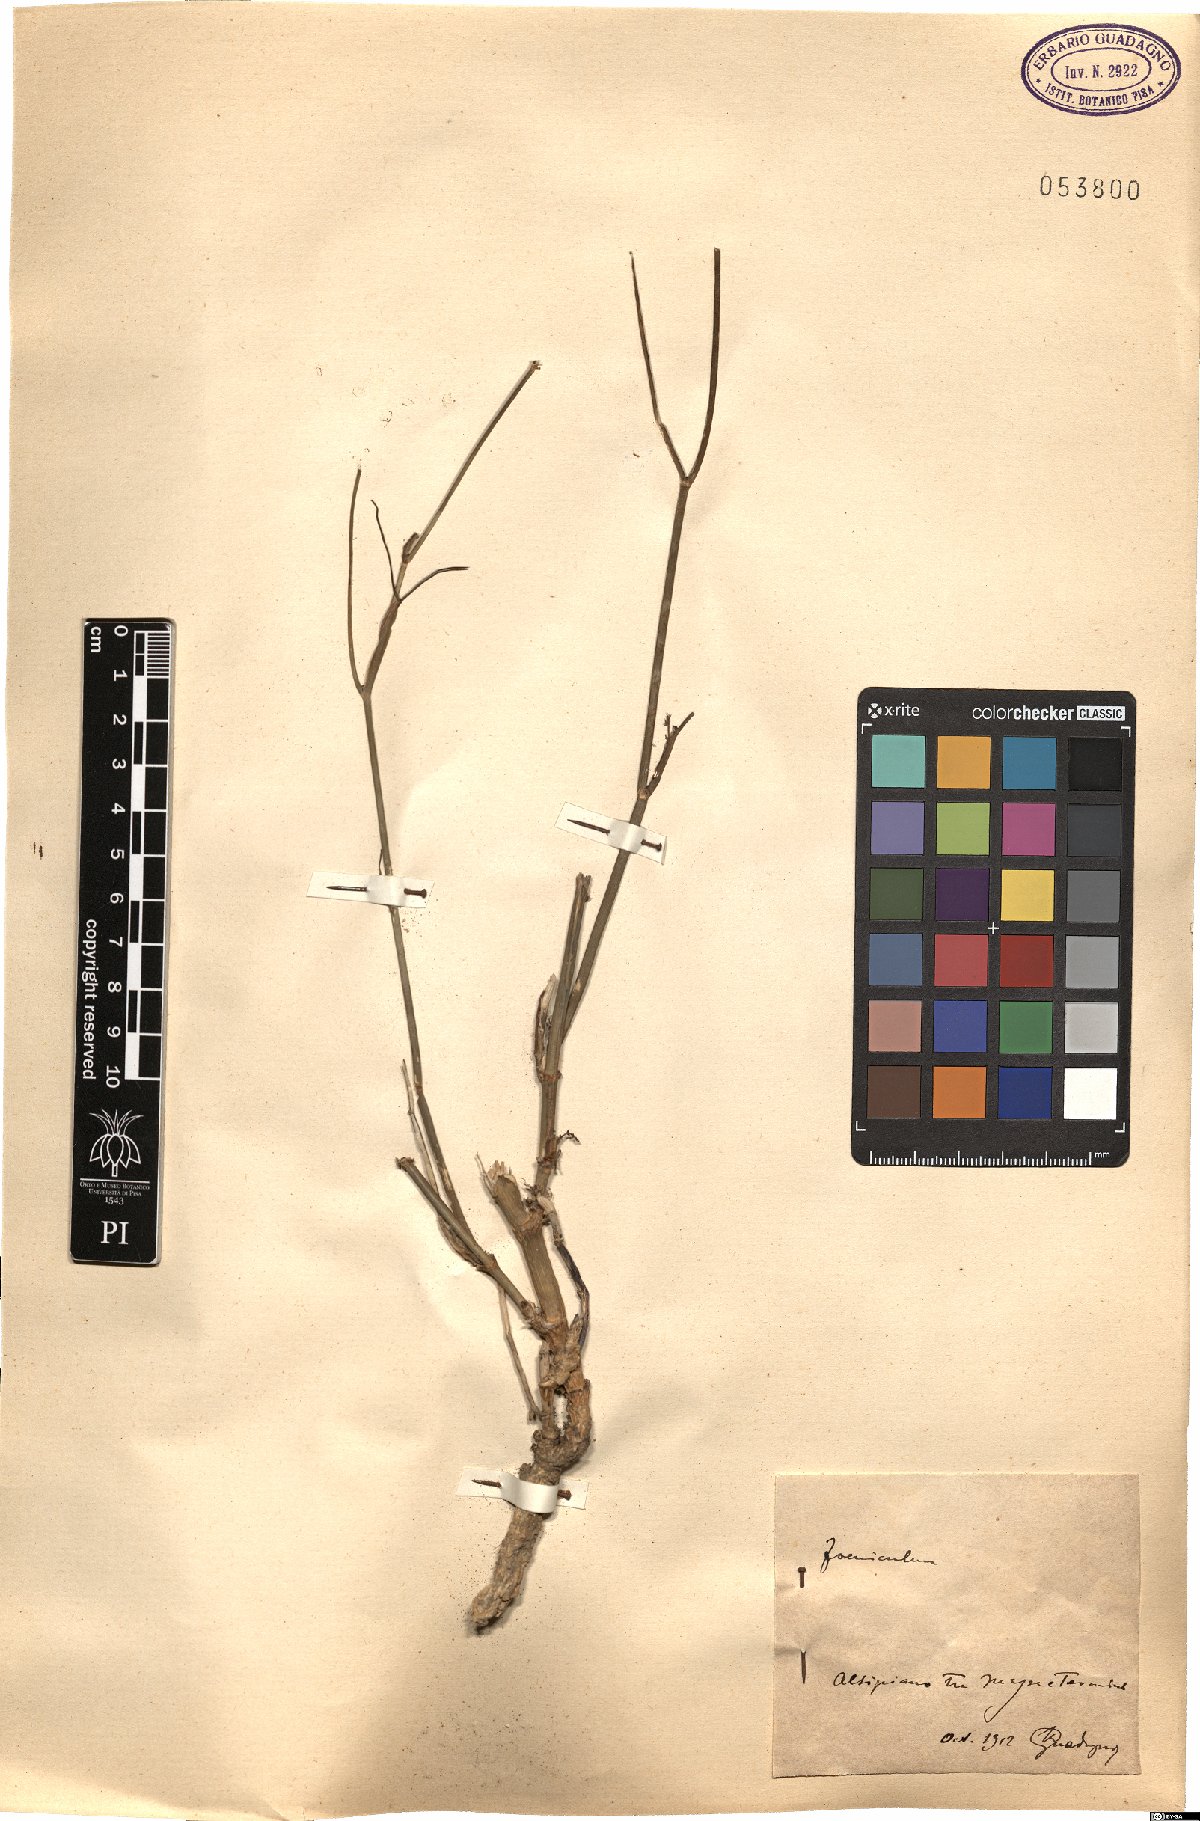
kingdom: Plantae
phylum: Tracheophyta
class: Magnoliopsida
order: Apiales
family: Apiaceae
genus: Foeniculum
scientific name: Foeniculum
